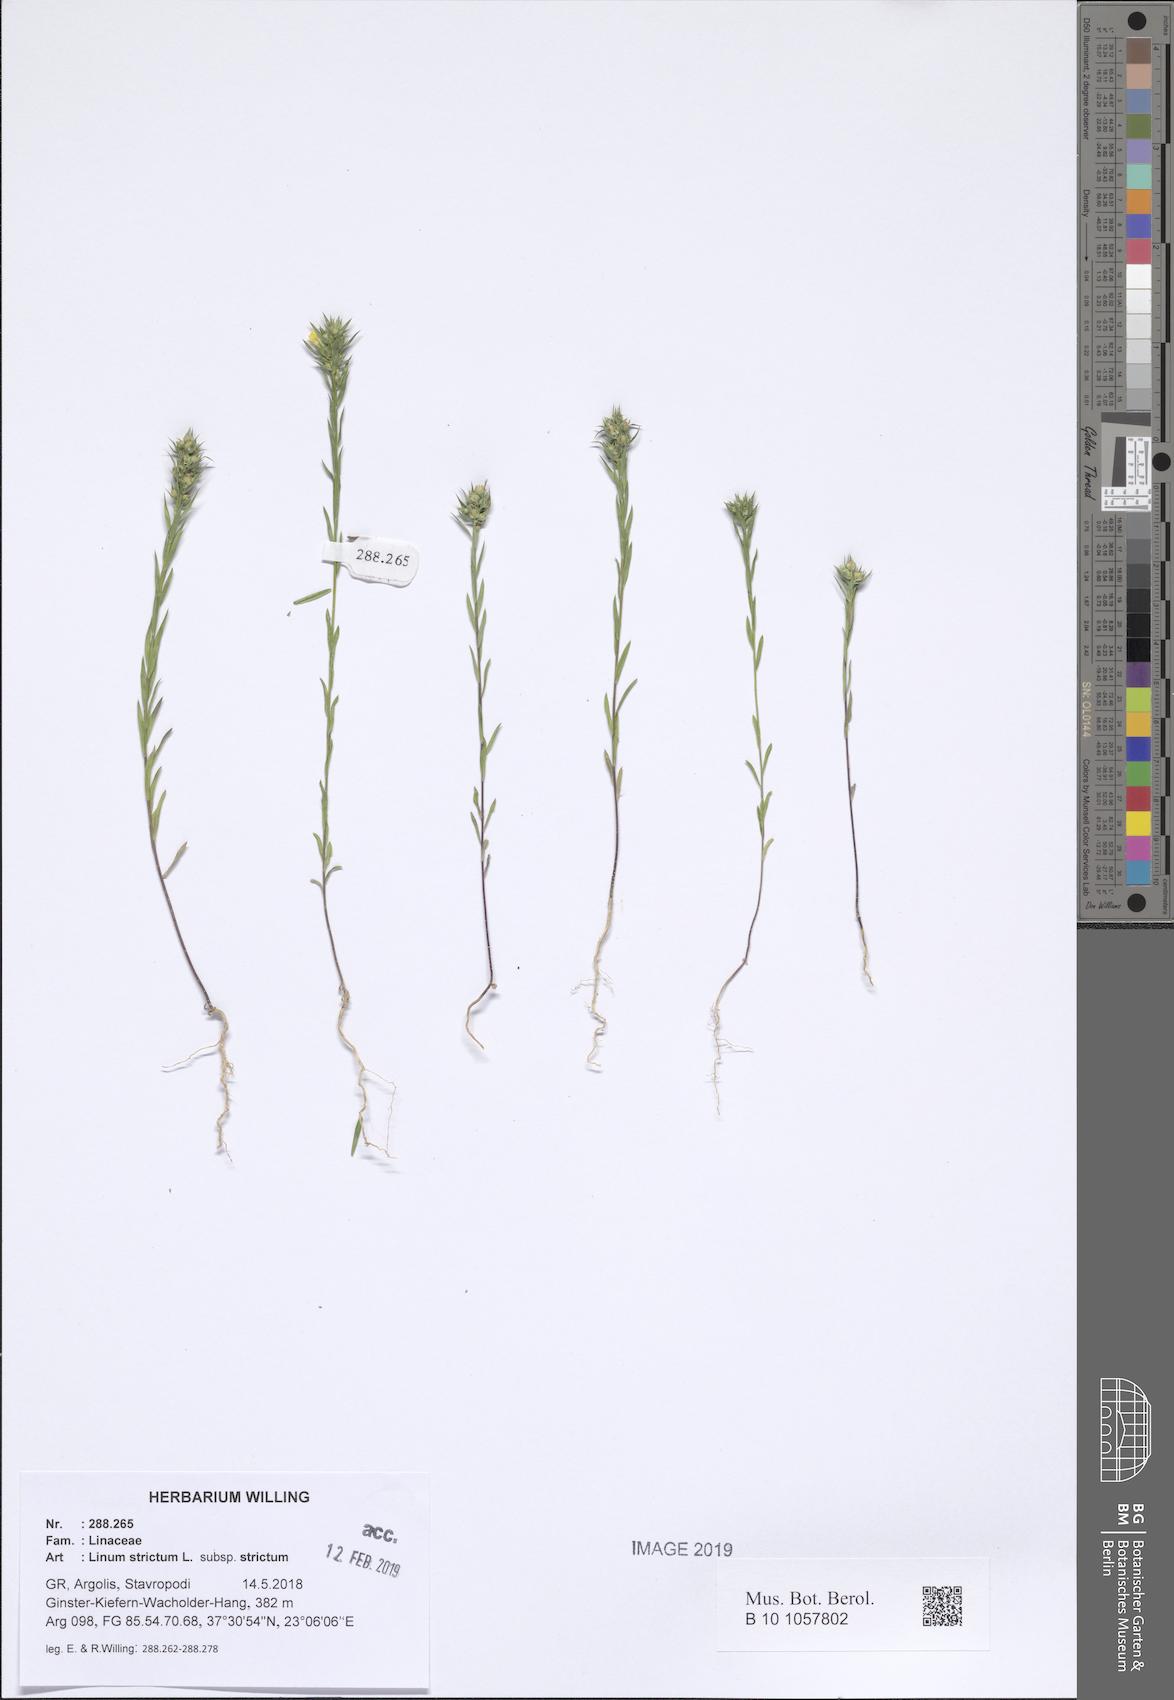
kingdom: Plantae
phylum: Tracheophyta
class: Magnoliopsida
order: Malpighiales
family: Linaceae
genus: Linum
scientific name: Linum strictum
